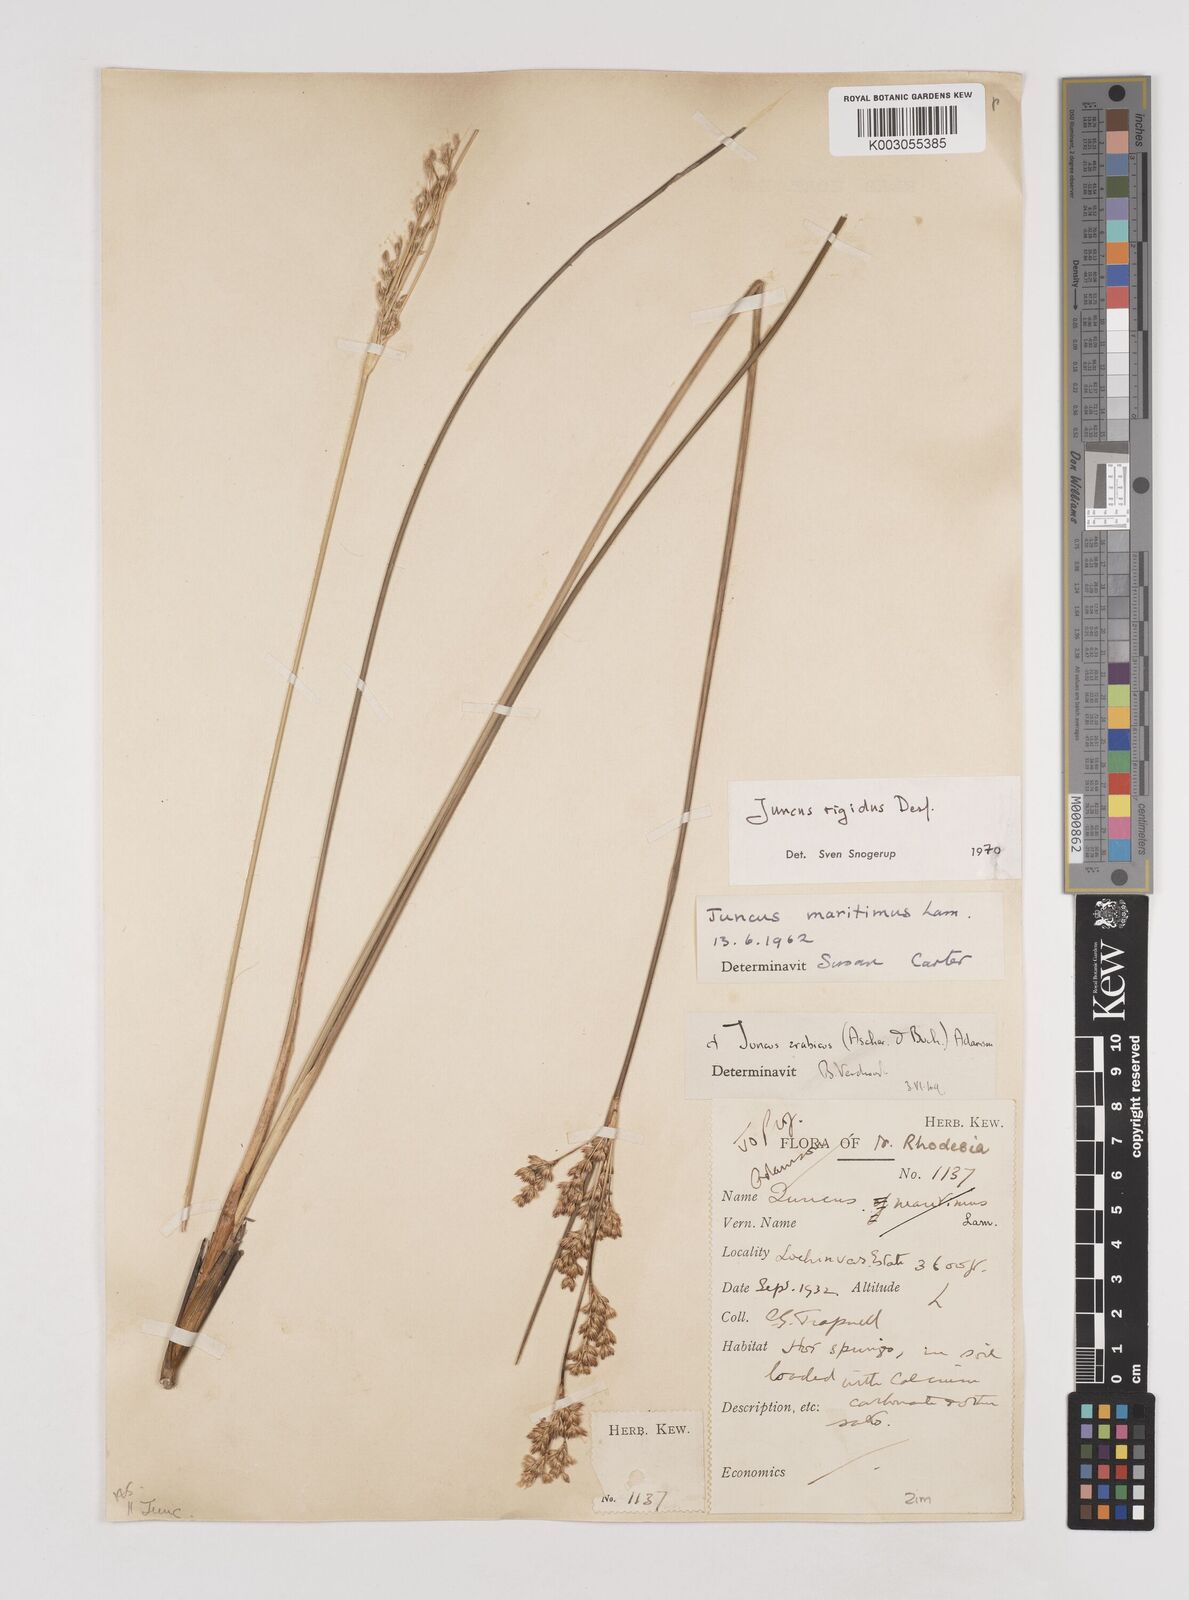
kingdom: Plantae
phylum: Tracheophyta
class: Liliopsida
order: Poales
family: Juncaceae
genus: Juncus
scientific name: Juncus rigidus
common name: Hard sea rush
